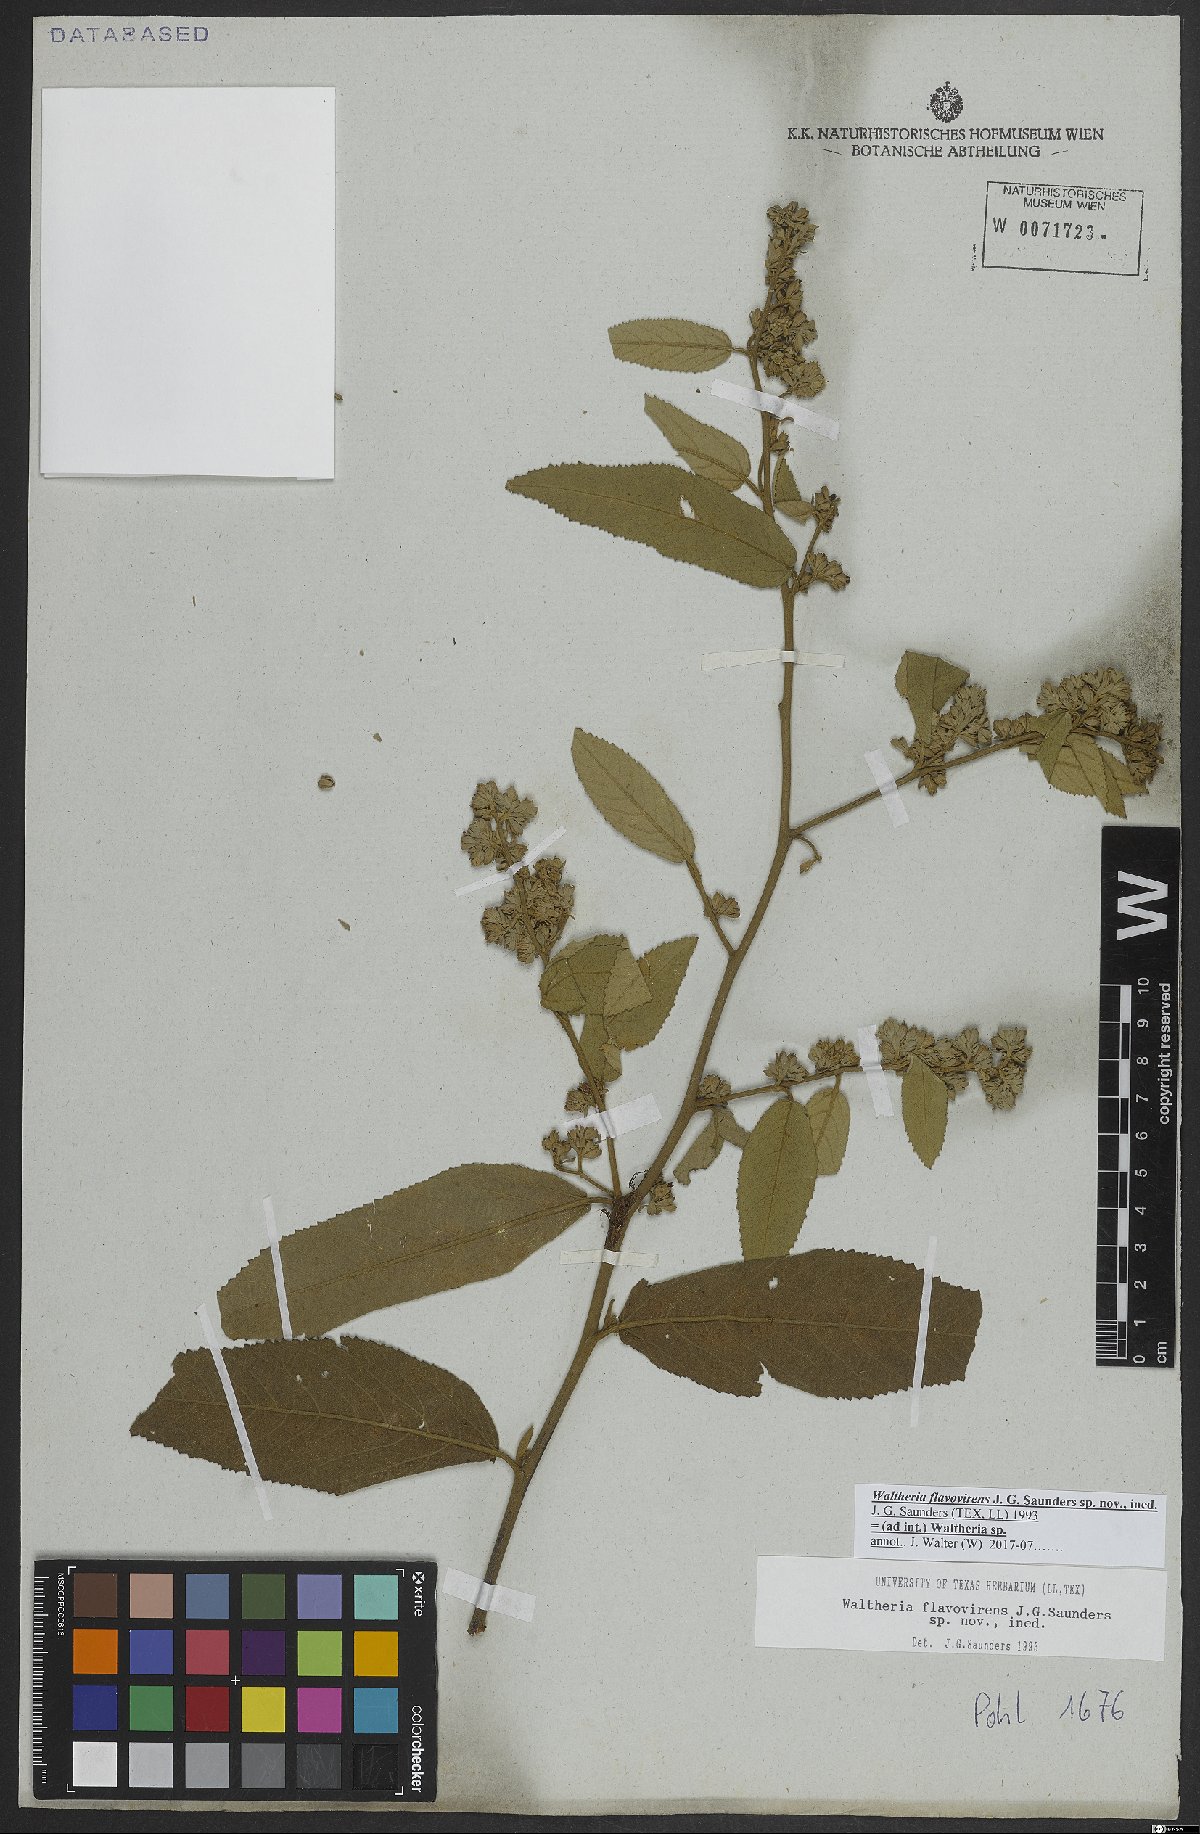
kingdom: Plantae
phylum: Tracheophyta
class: Magnoliopsida
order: Malvales
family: Malvaceae
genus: Waltheria
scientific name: Waltheria
